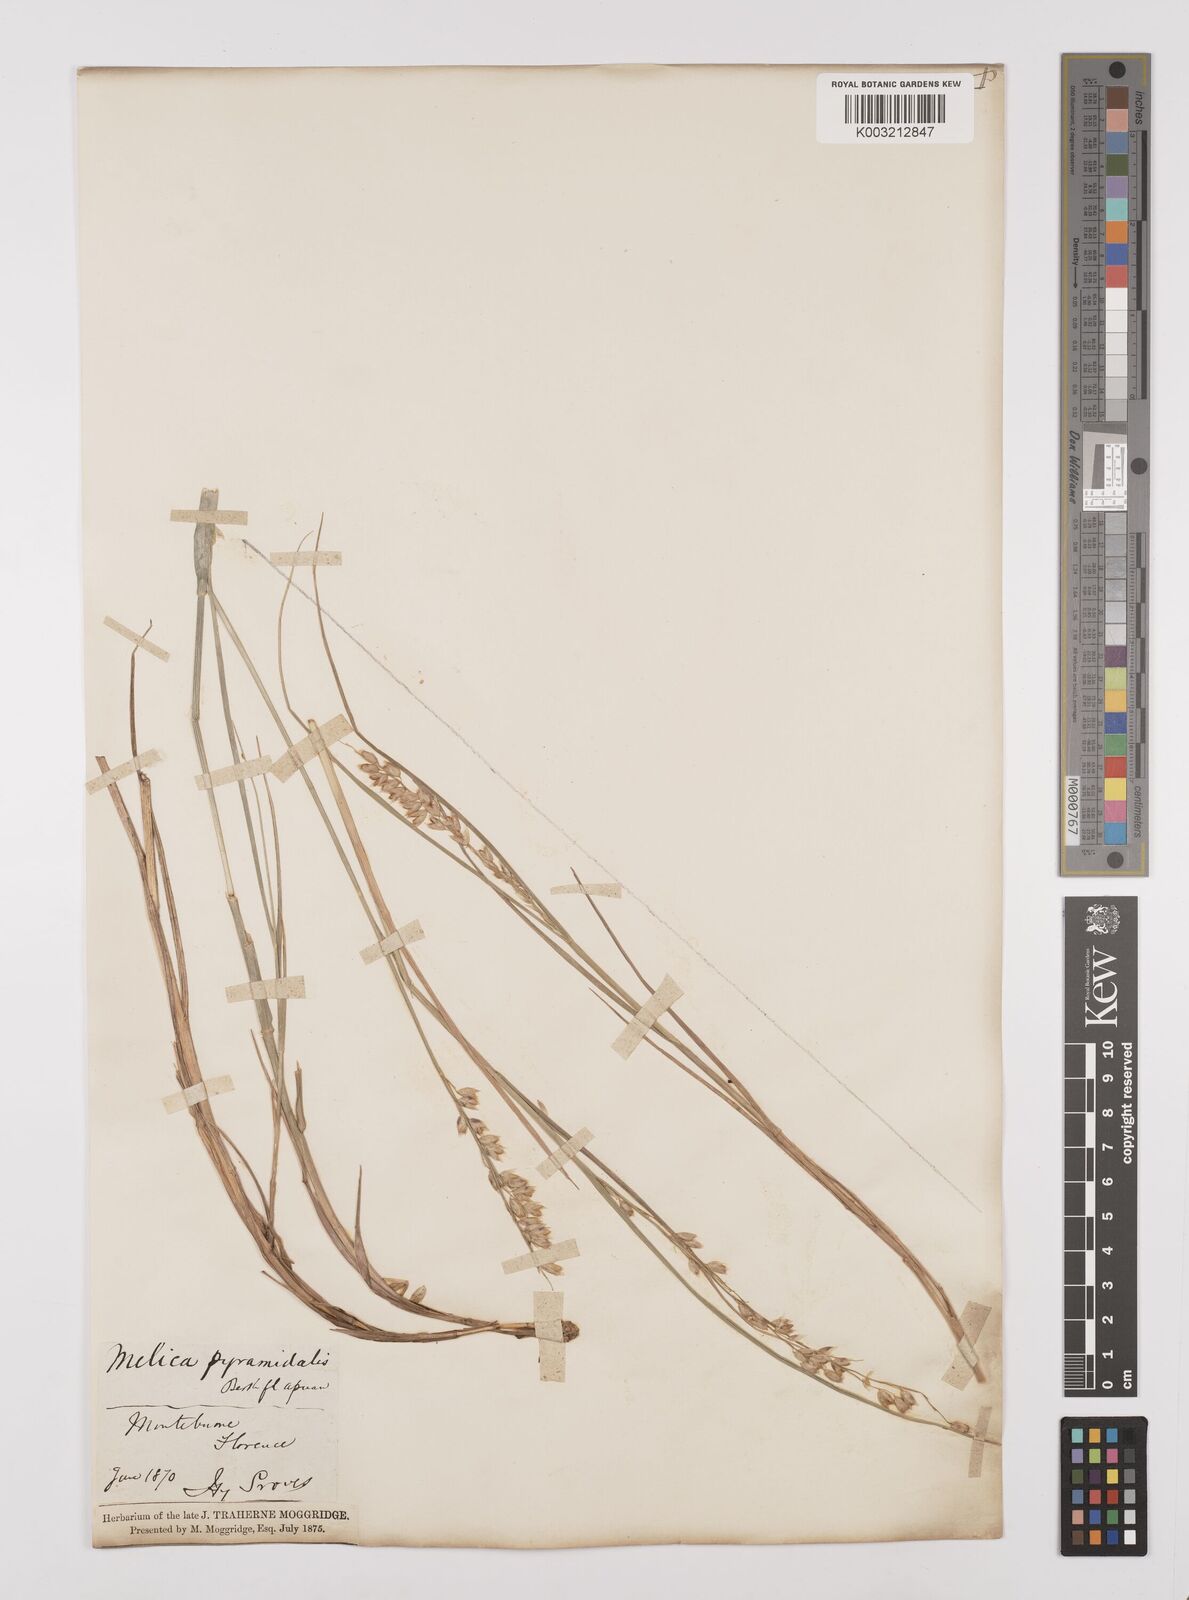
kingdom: Plantae
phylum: Tracheophyta
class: Liliopsida
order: Poales
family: Poaceae
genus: Melica
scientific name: Melica minuta
